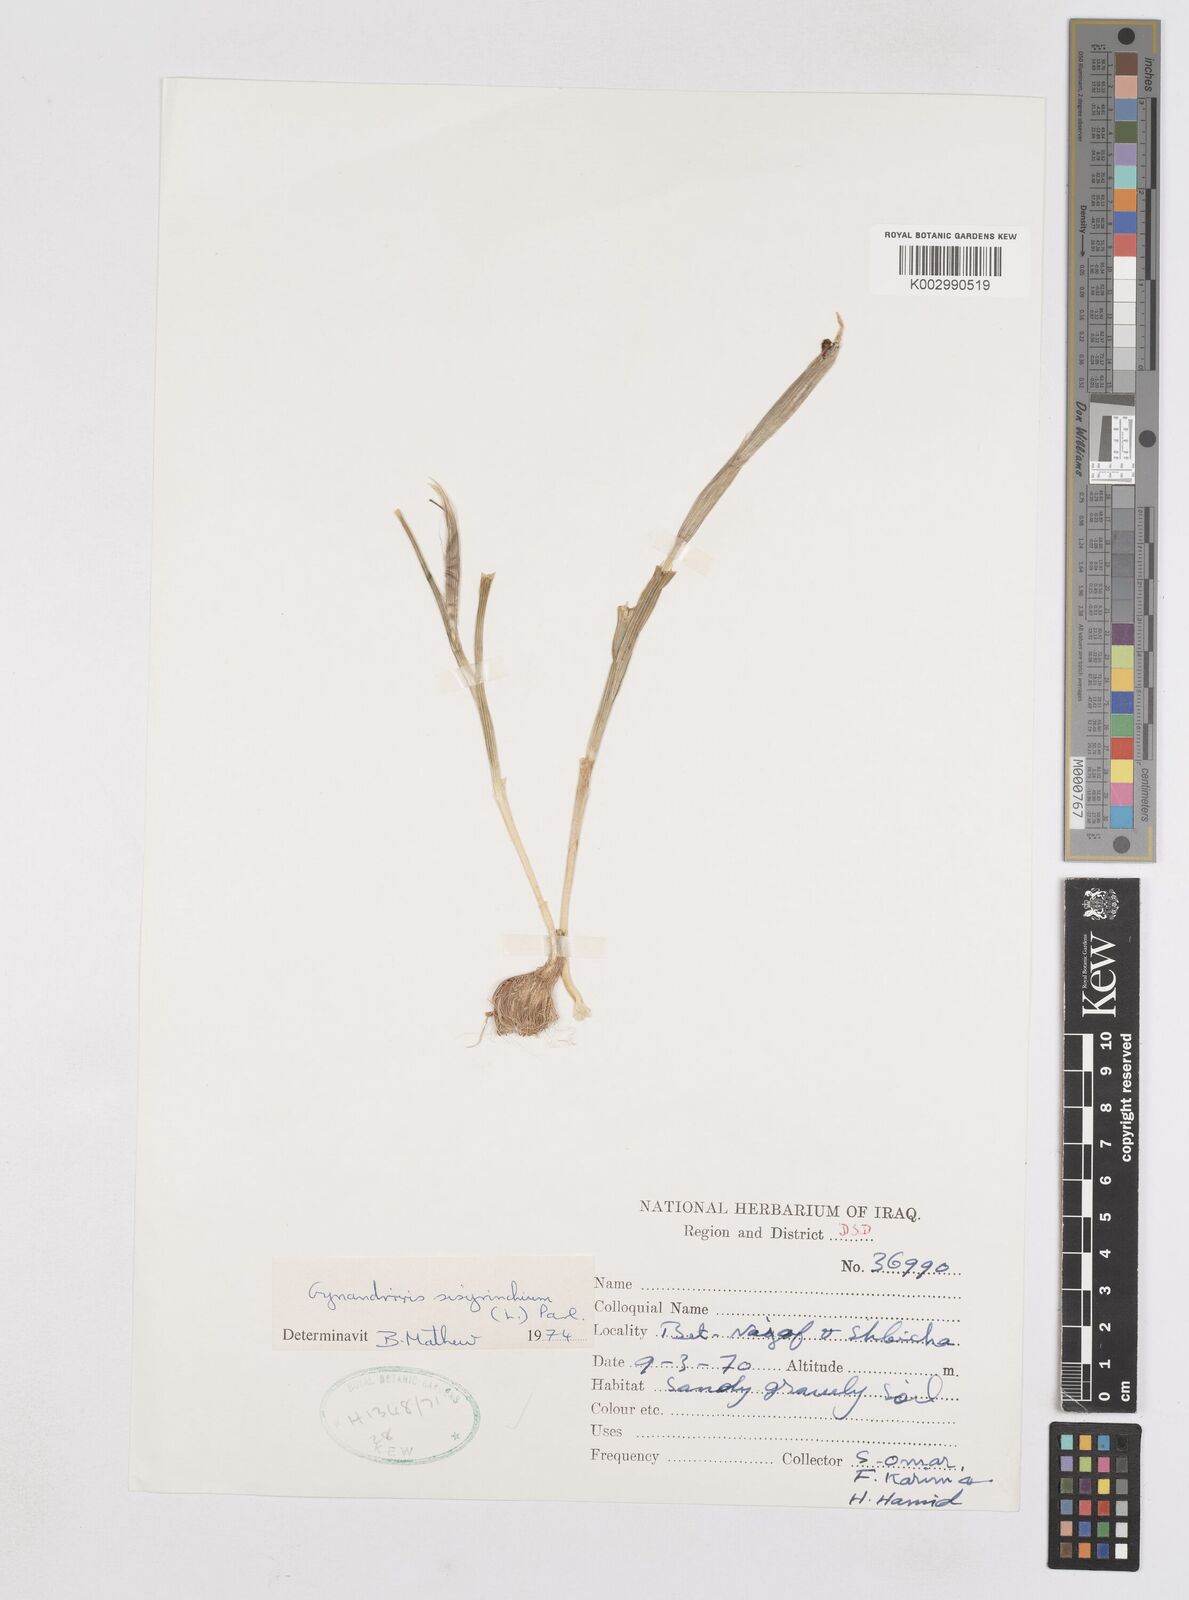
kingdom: Plantae
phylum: Tracheophyta
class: Liliopsida
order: Asparagales
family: Iridaceae
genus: Moraea
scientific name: Moraea sisyrinchium
